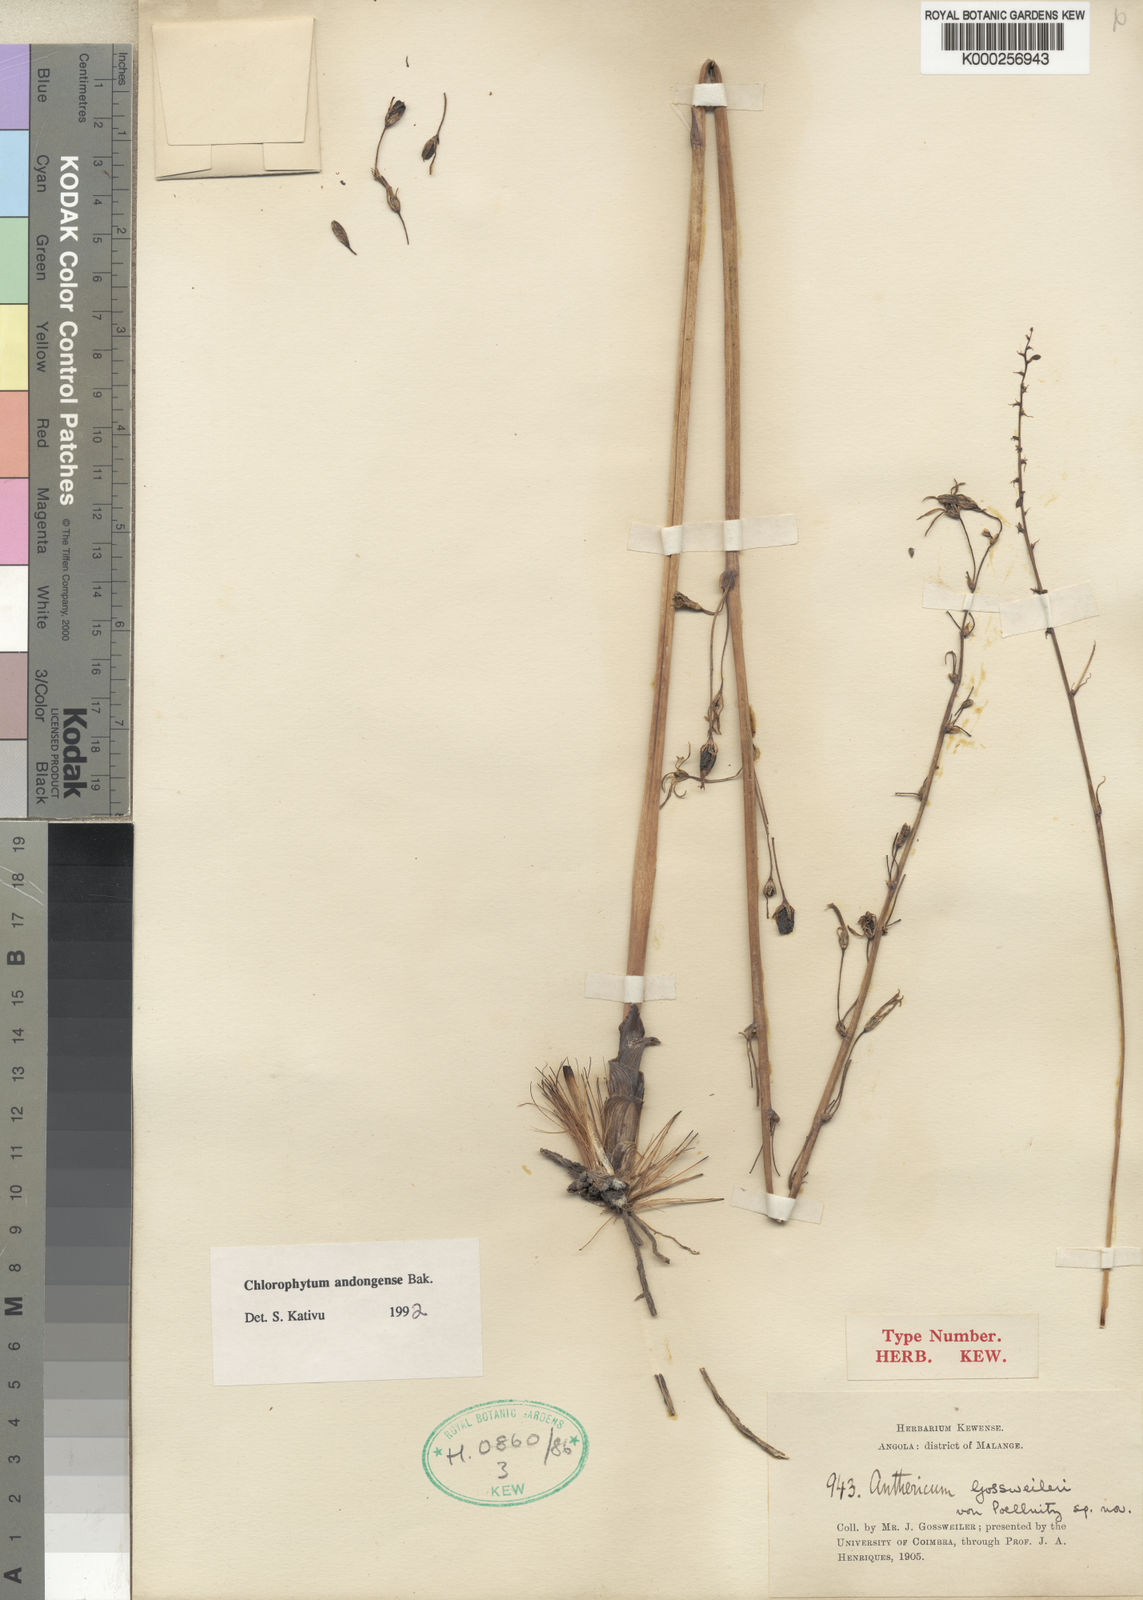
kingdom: Plantae
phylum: Tracheophyta
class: Liliopsida
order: Asparagales
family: Asparagaceae
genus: Chlorophytum
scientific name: Chlorophytum andongense
